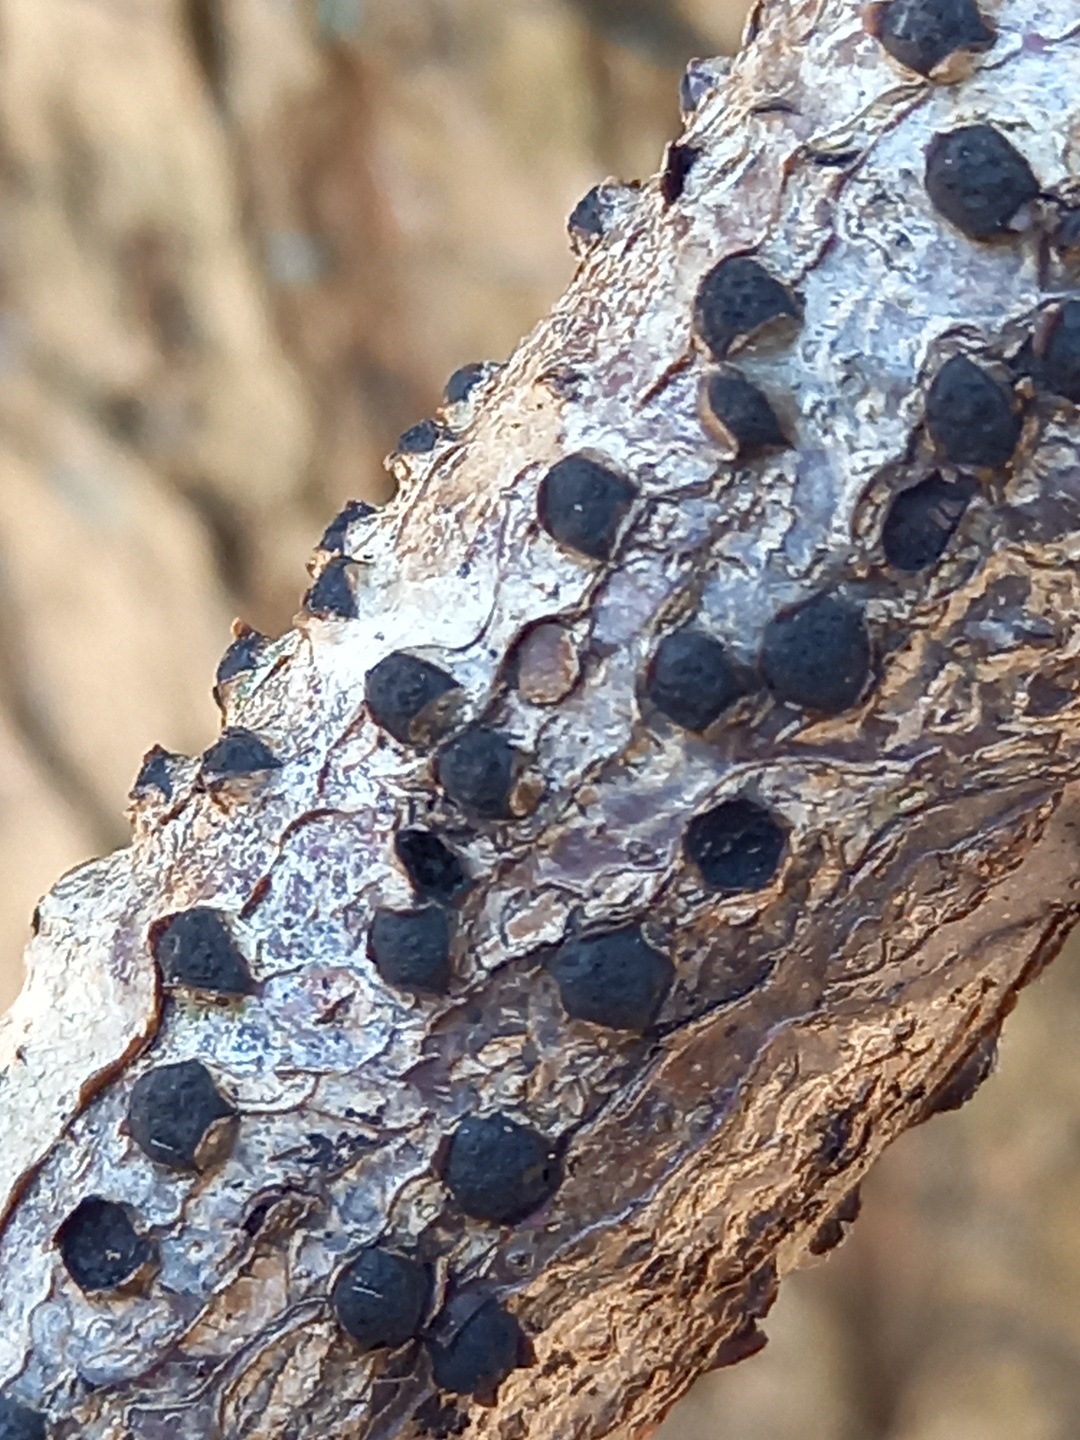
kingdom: Fungi
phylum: Ascomycota
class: Sordariomycetes
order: Xylariales
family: Diatrypaceae
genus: Diatrype
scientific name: Diatrype
